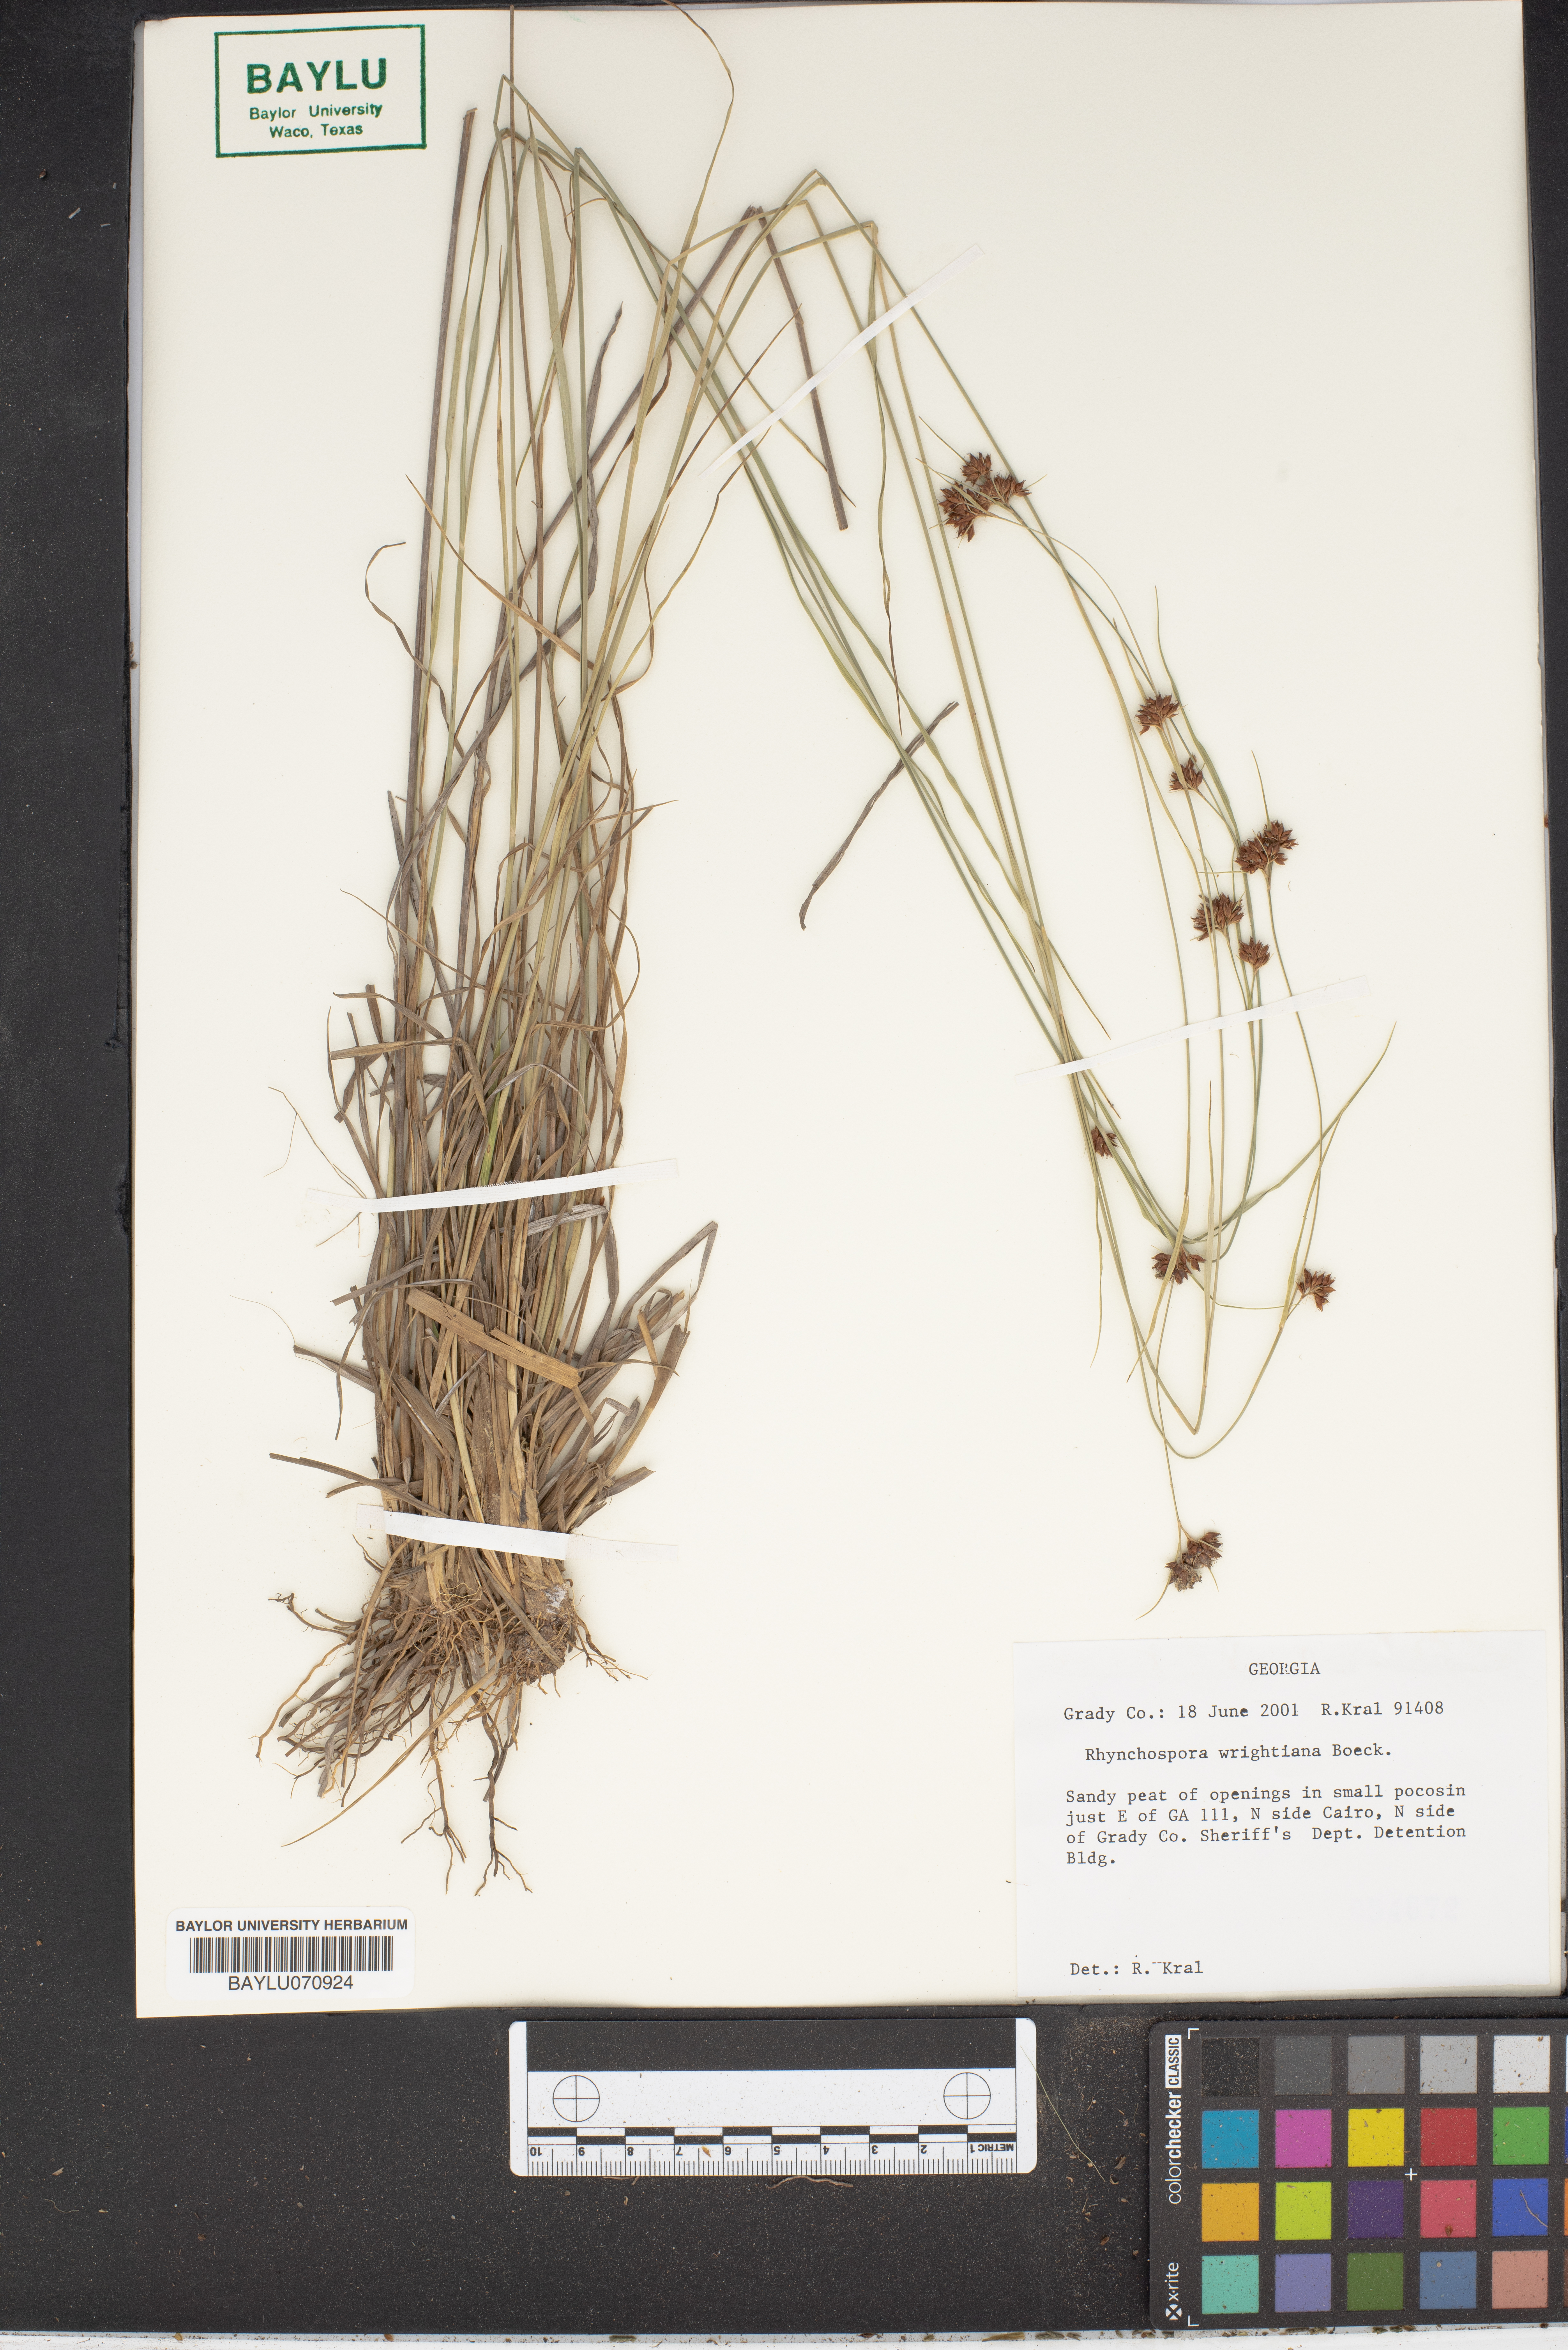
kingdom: Plantae
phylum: Tracheophyta
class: Liliopsida
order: Poales
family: Cyperaceae
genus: Rhynchospora
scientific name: Rhynchospora wrightiana
